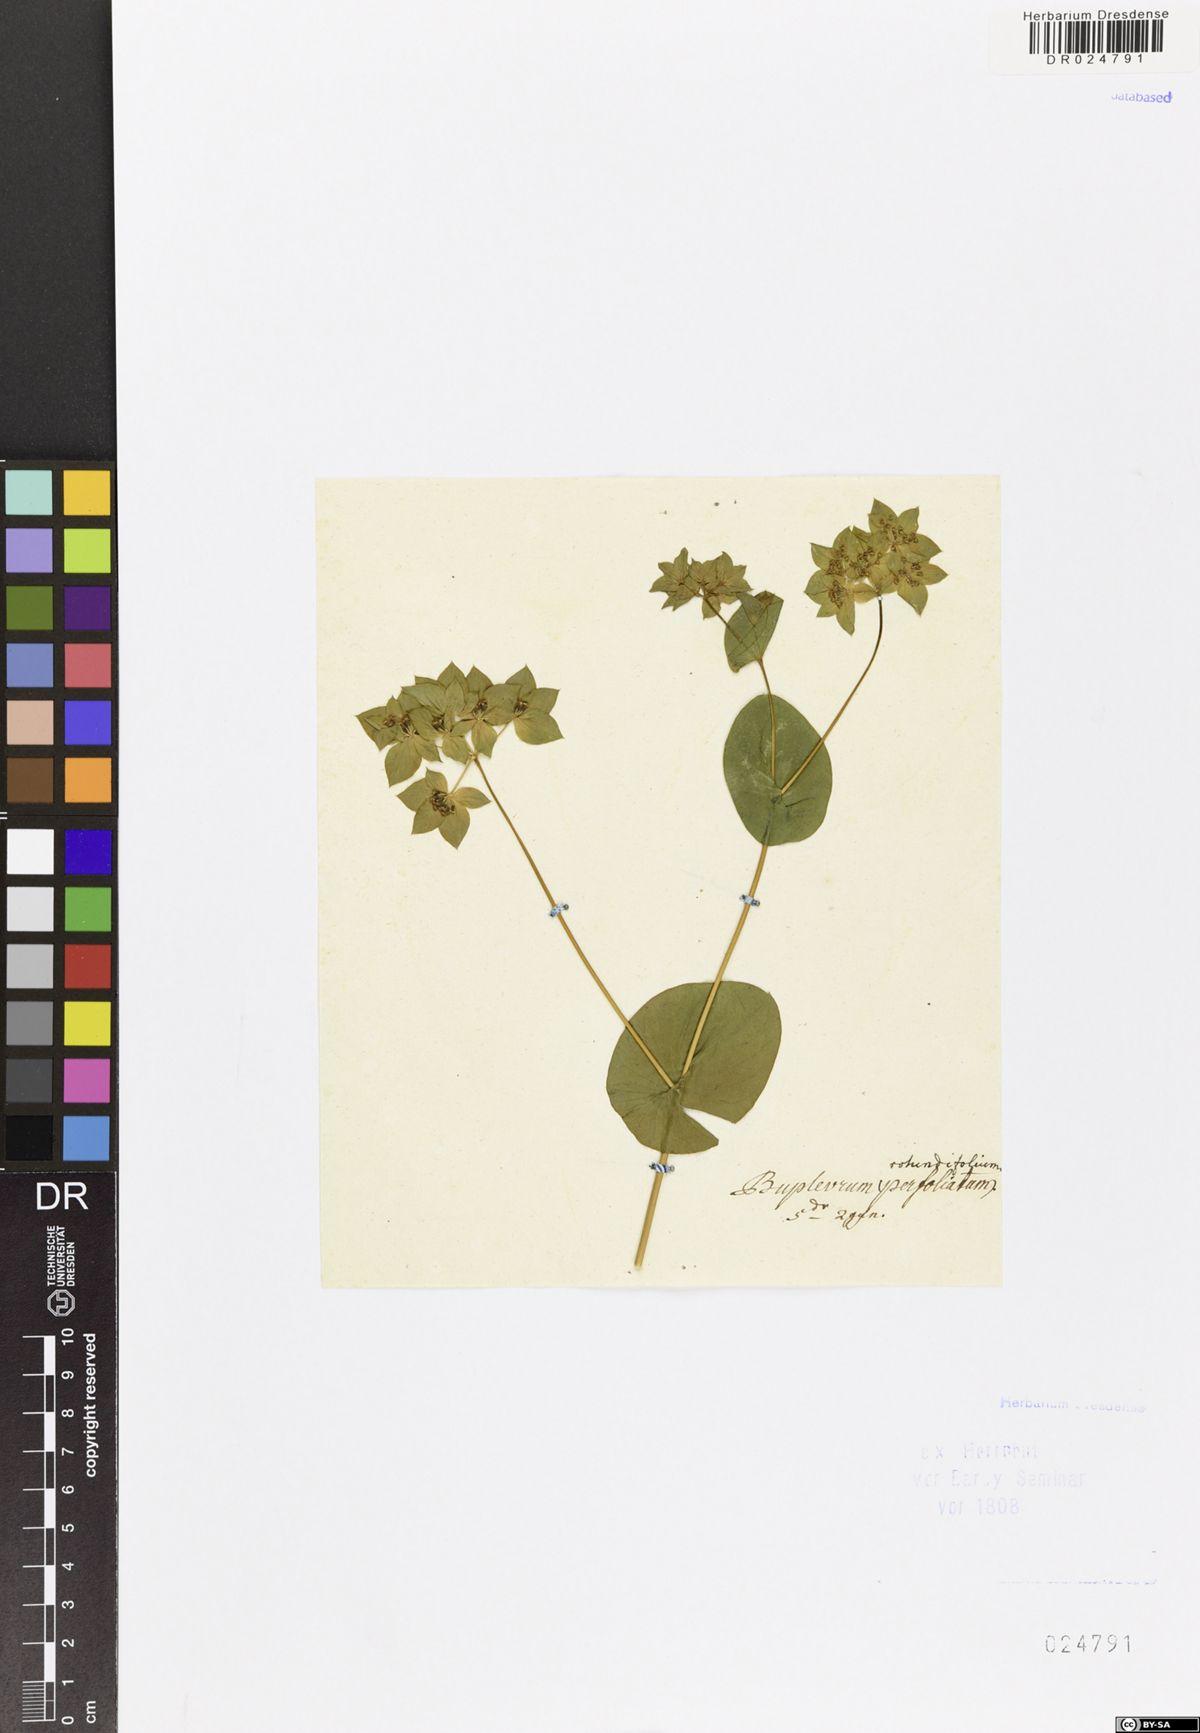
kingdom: Plantae
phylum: Tracheophyta
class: Magnoliopsida
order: Apiales
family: Apiaceae
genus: Bupleurum
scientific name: Bupleurum rotundifolium
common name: Thorow-wax
